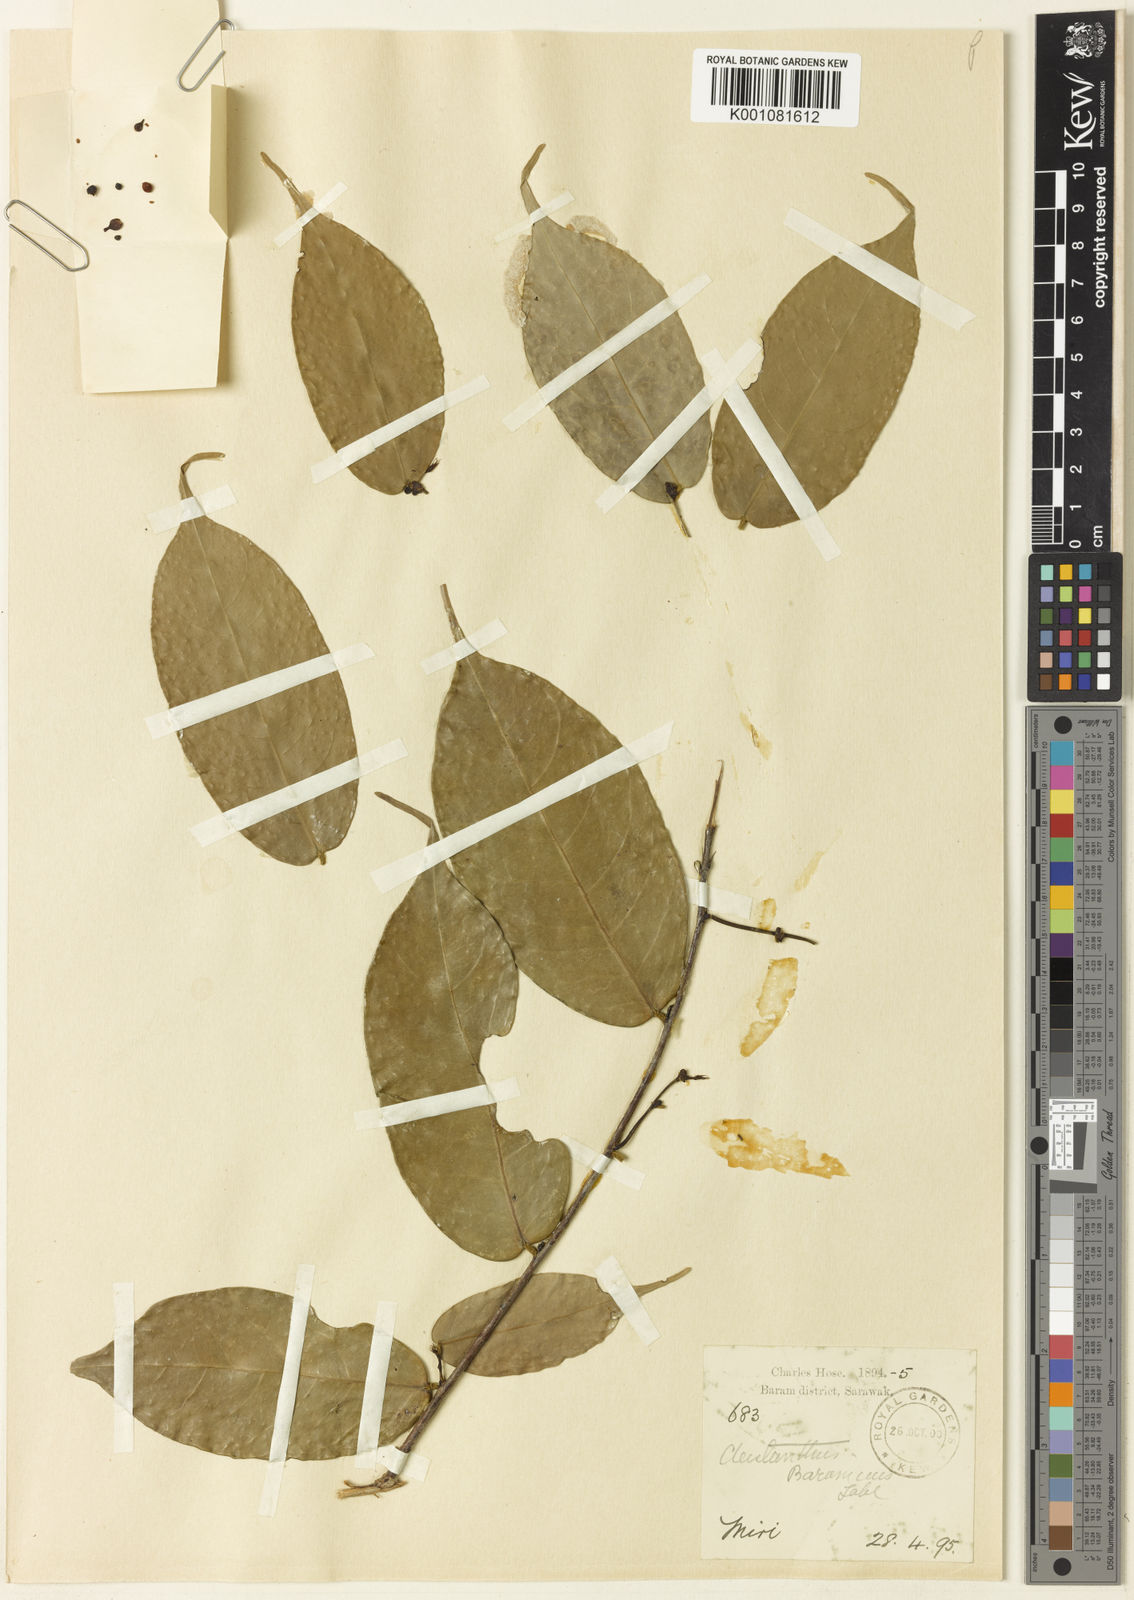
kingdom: Plantae
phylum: Tracheophyta
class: Magnoliopsida
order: Malpighiales
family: Phyllanthaceae
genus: Cleistanthus
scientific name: Cleistanthus baramicus
